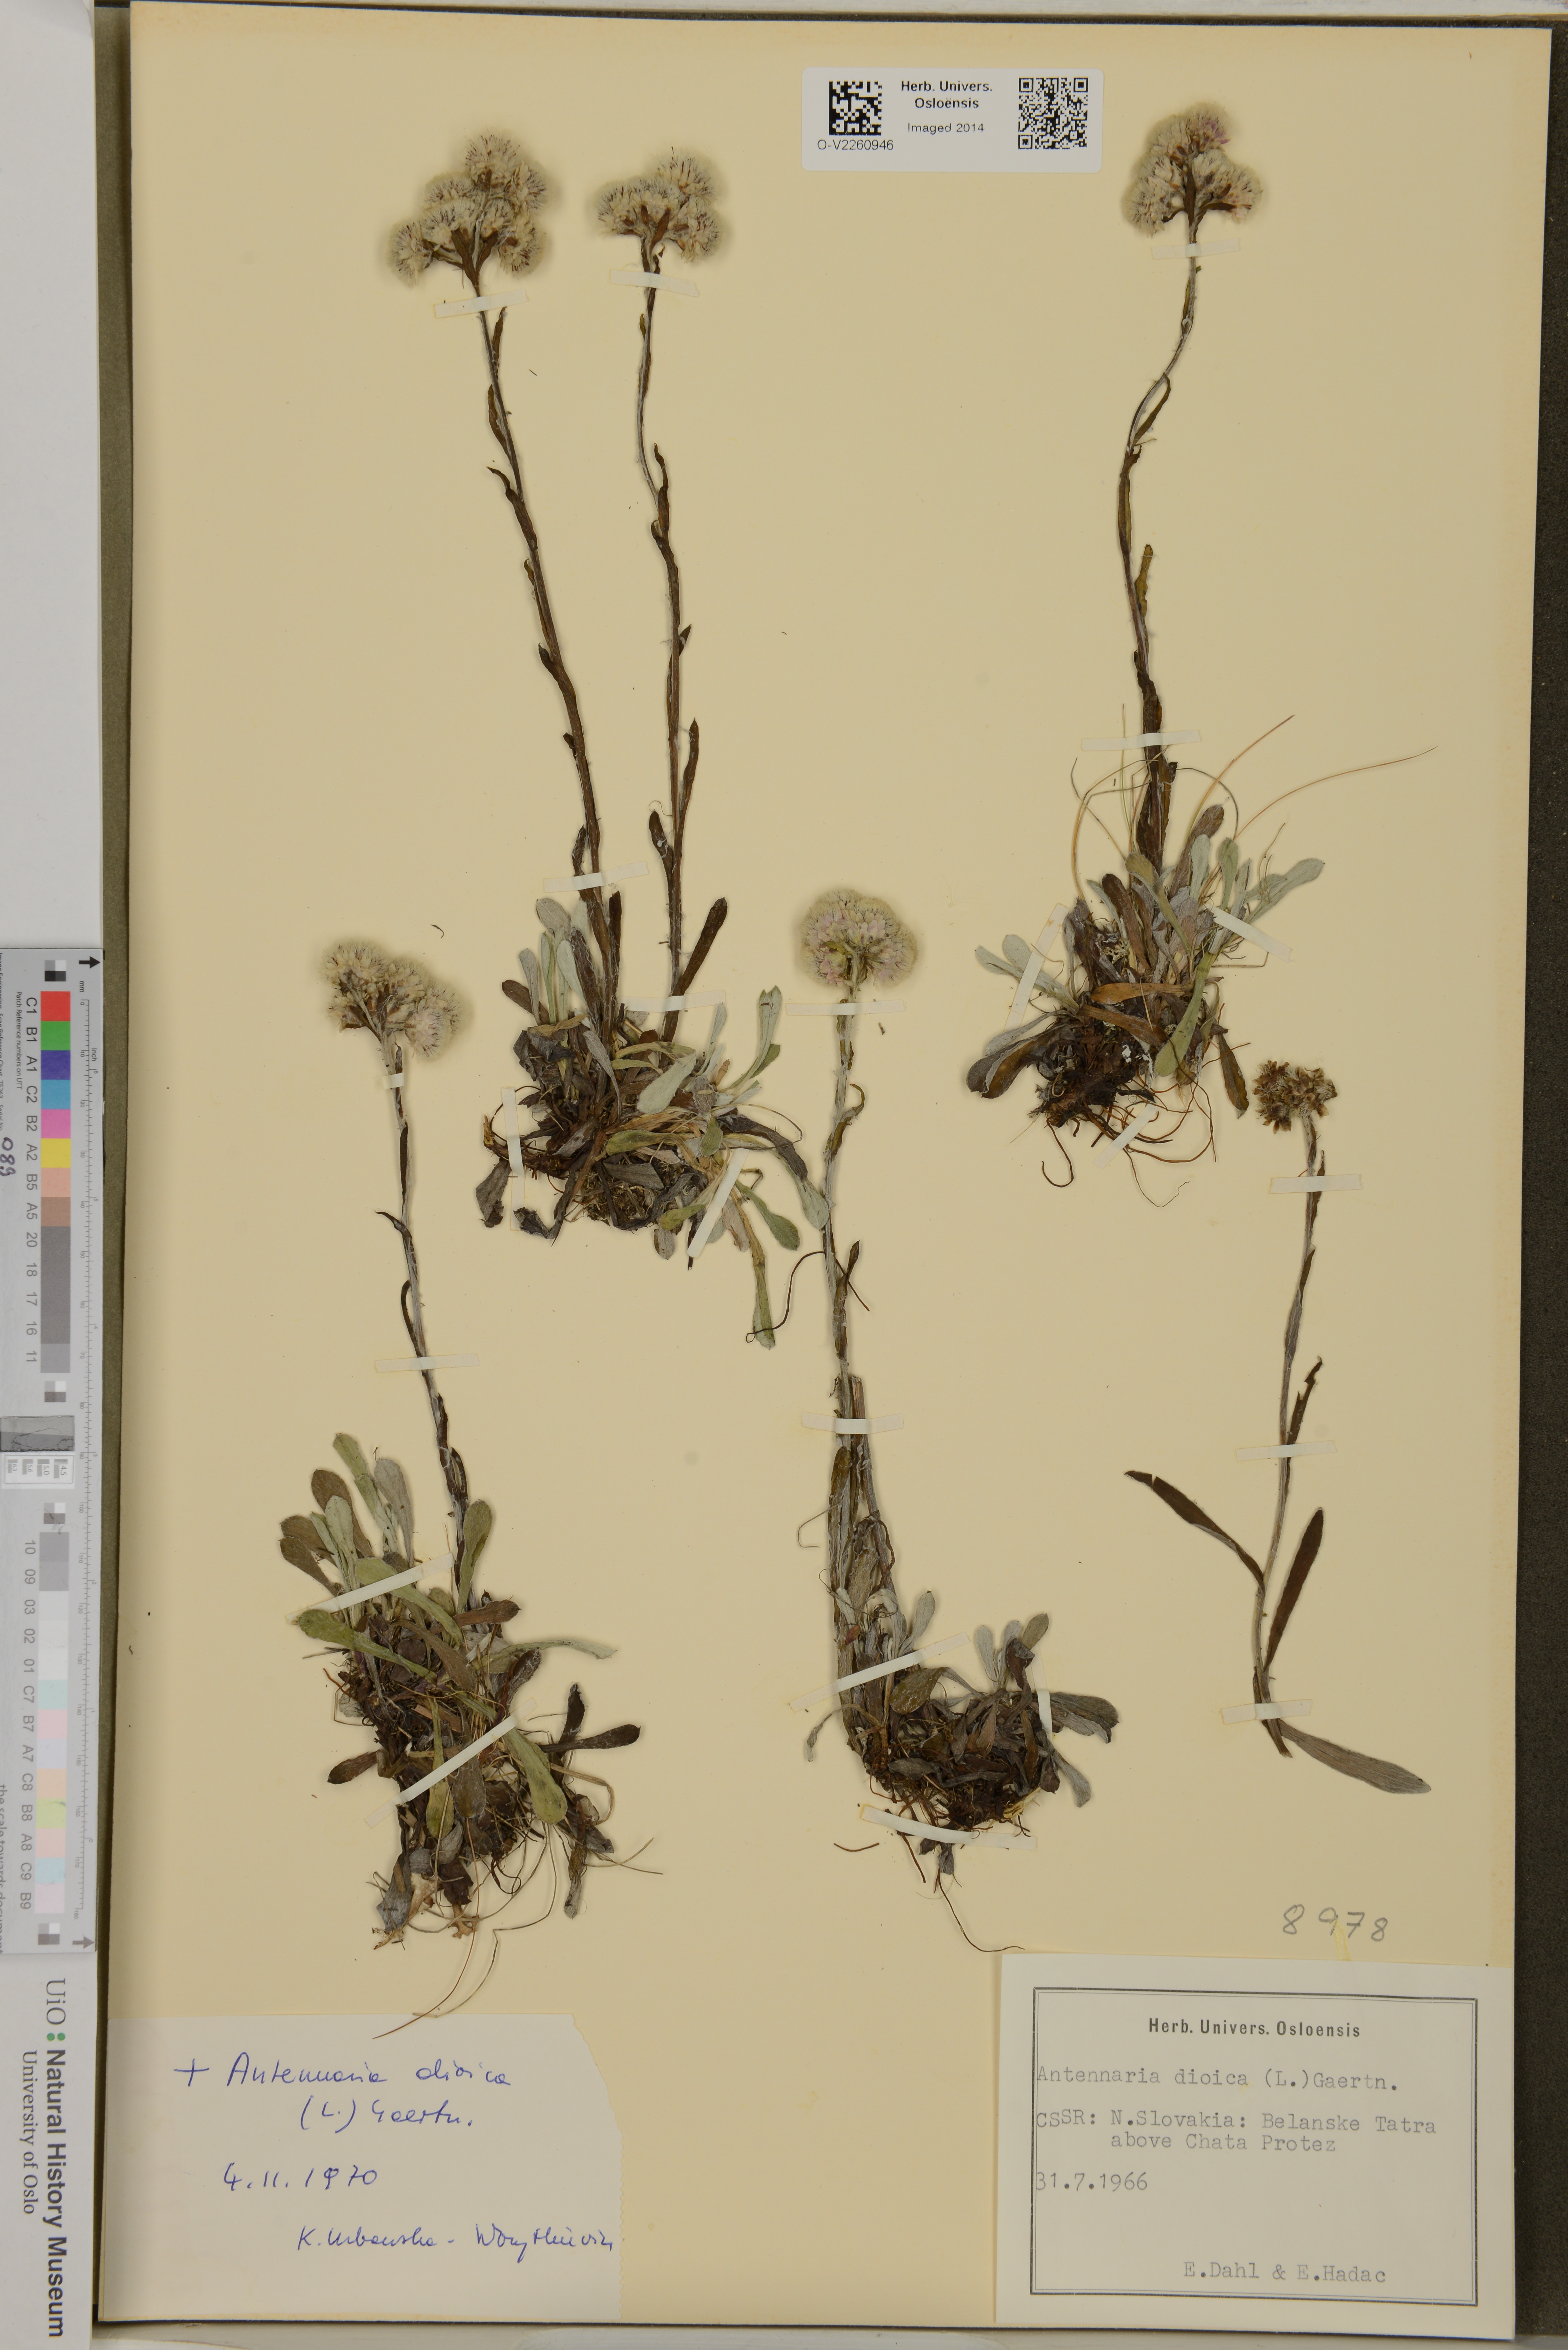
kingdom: Plantae
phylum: Tracheophyta
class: Magnoliopsida
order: Asterales
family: Asteraceae
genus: Antennaria
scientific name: Antennaria dioica
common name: Mountain everlasting
